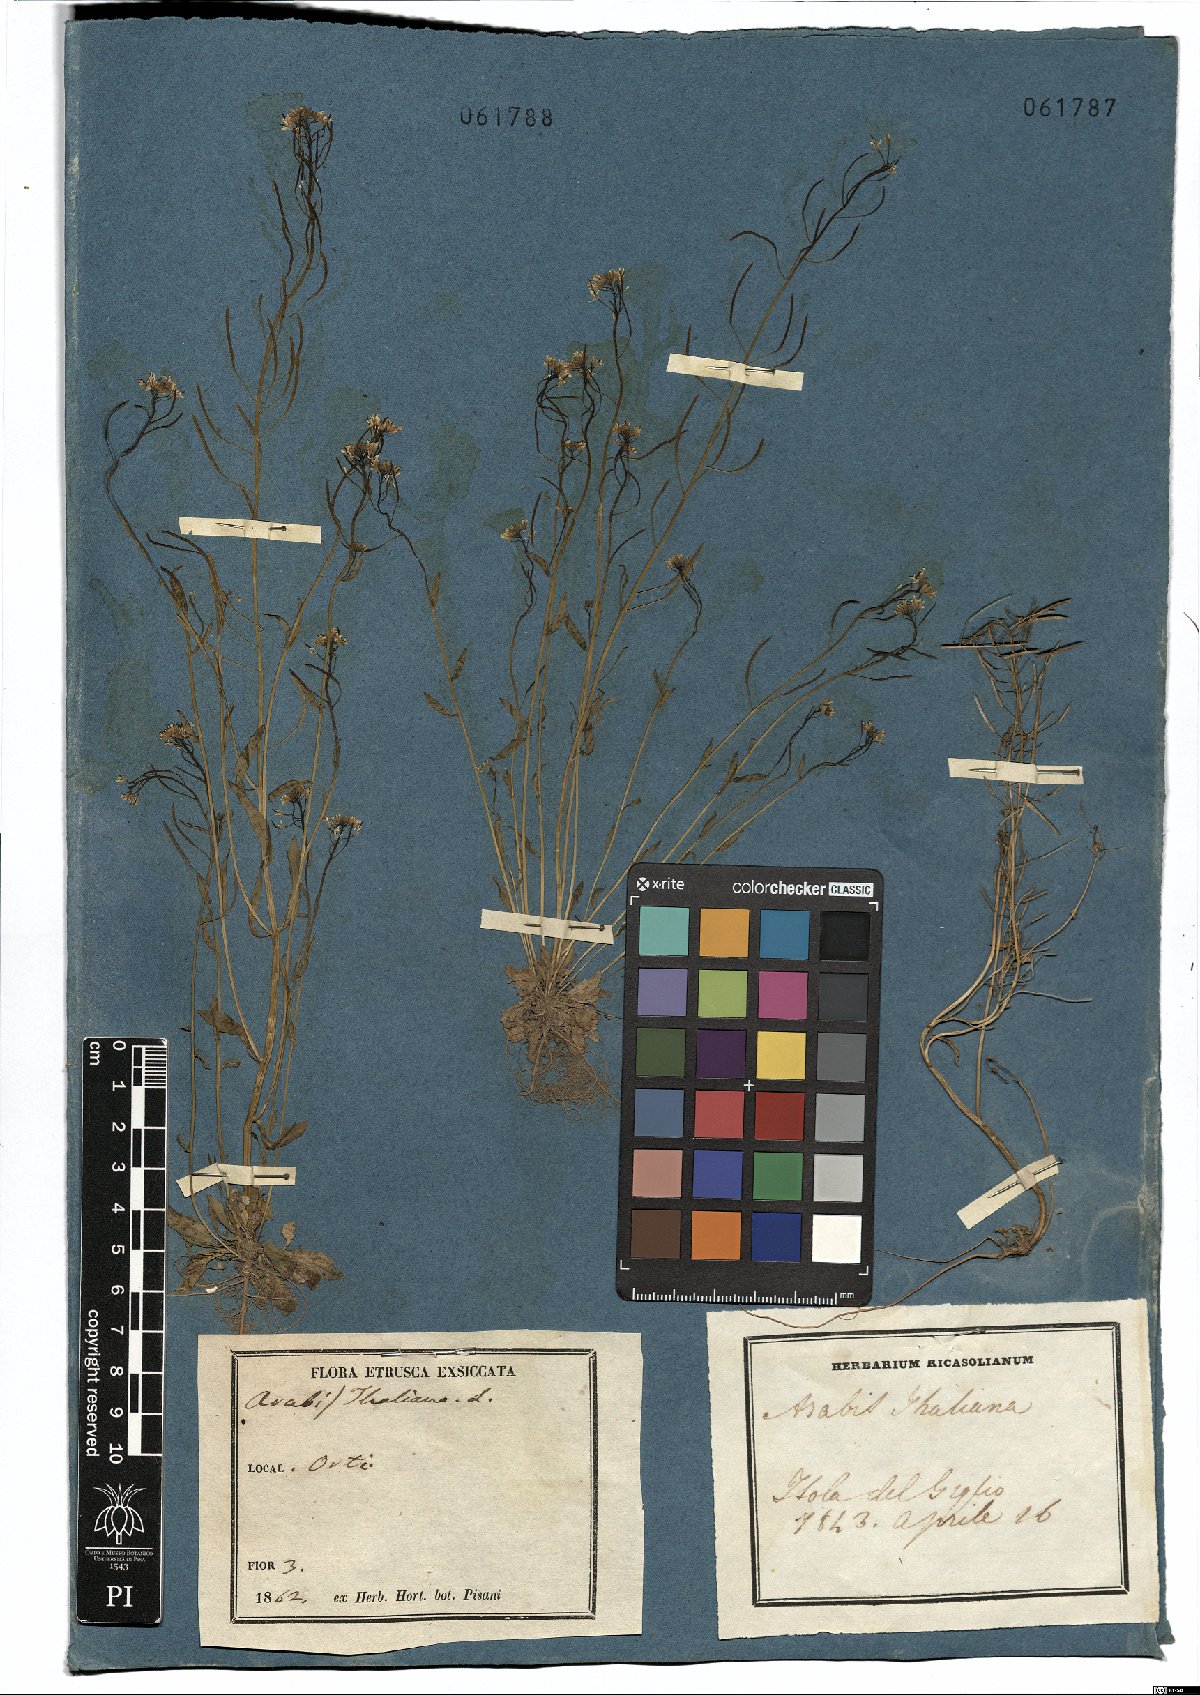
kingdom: Plantae
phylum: Tracheophyta
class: Magnoliopsida
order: Brassicales
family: Brassicaceae
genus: Arabidopsis
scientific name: Arabidopsis thaliana
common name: Thale cress
